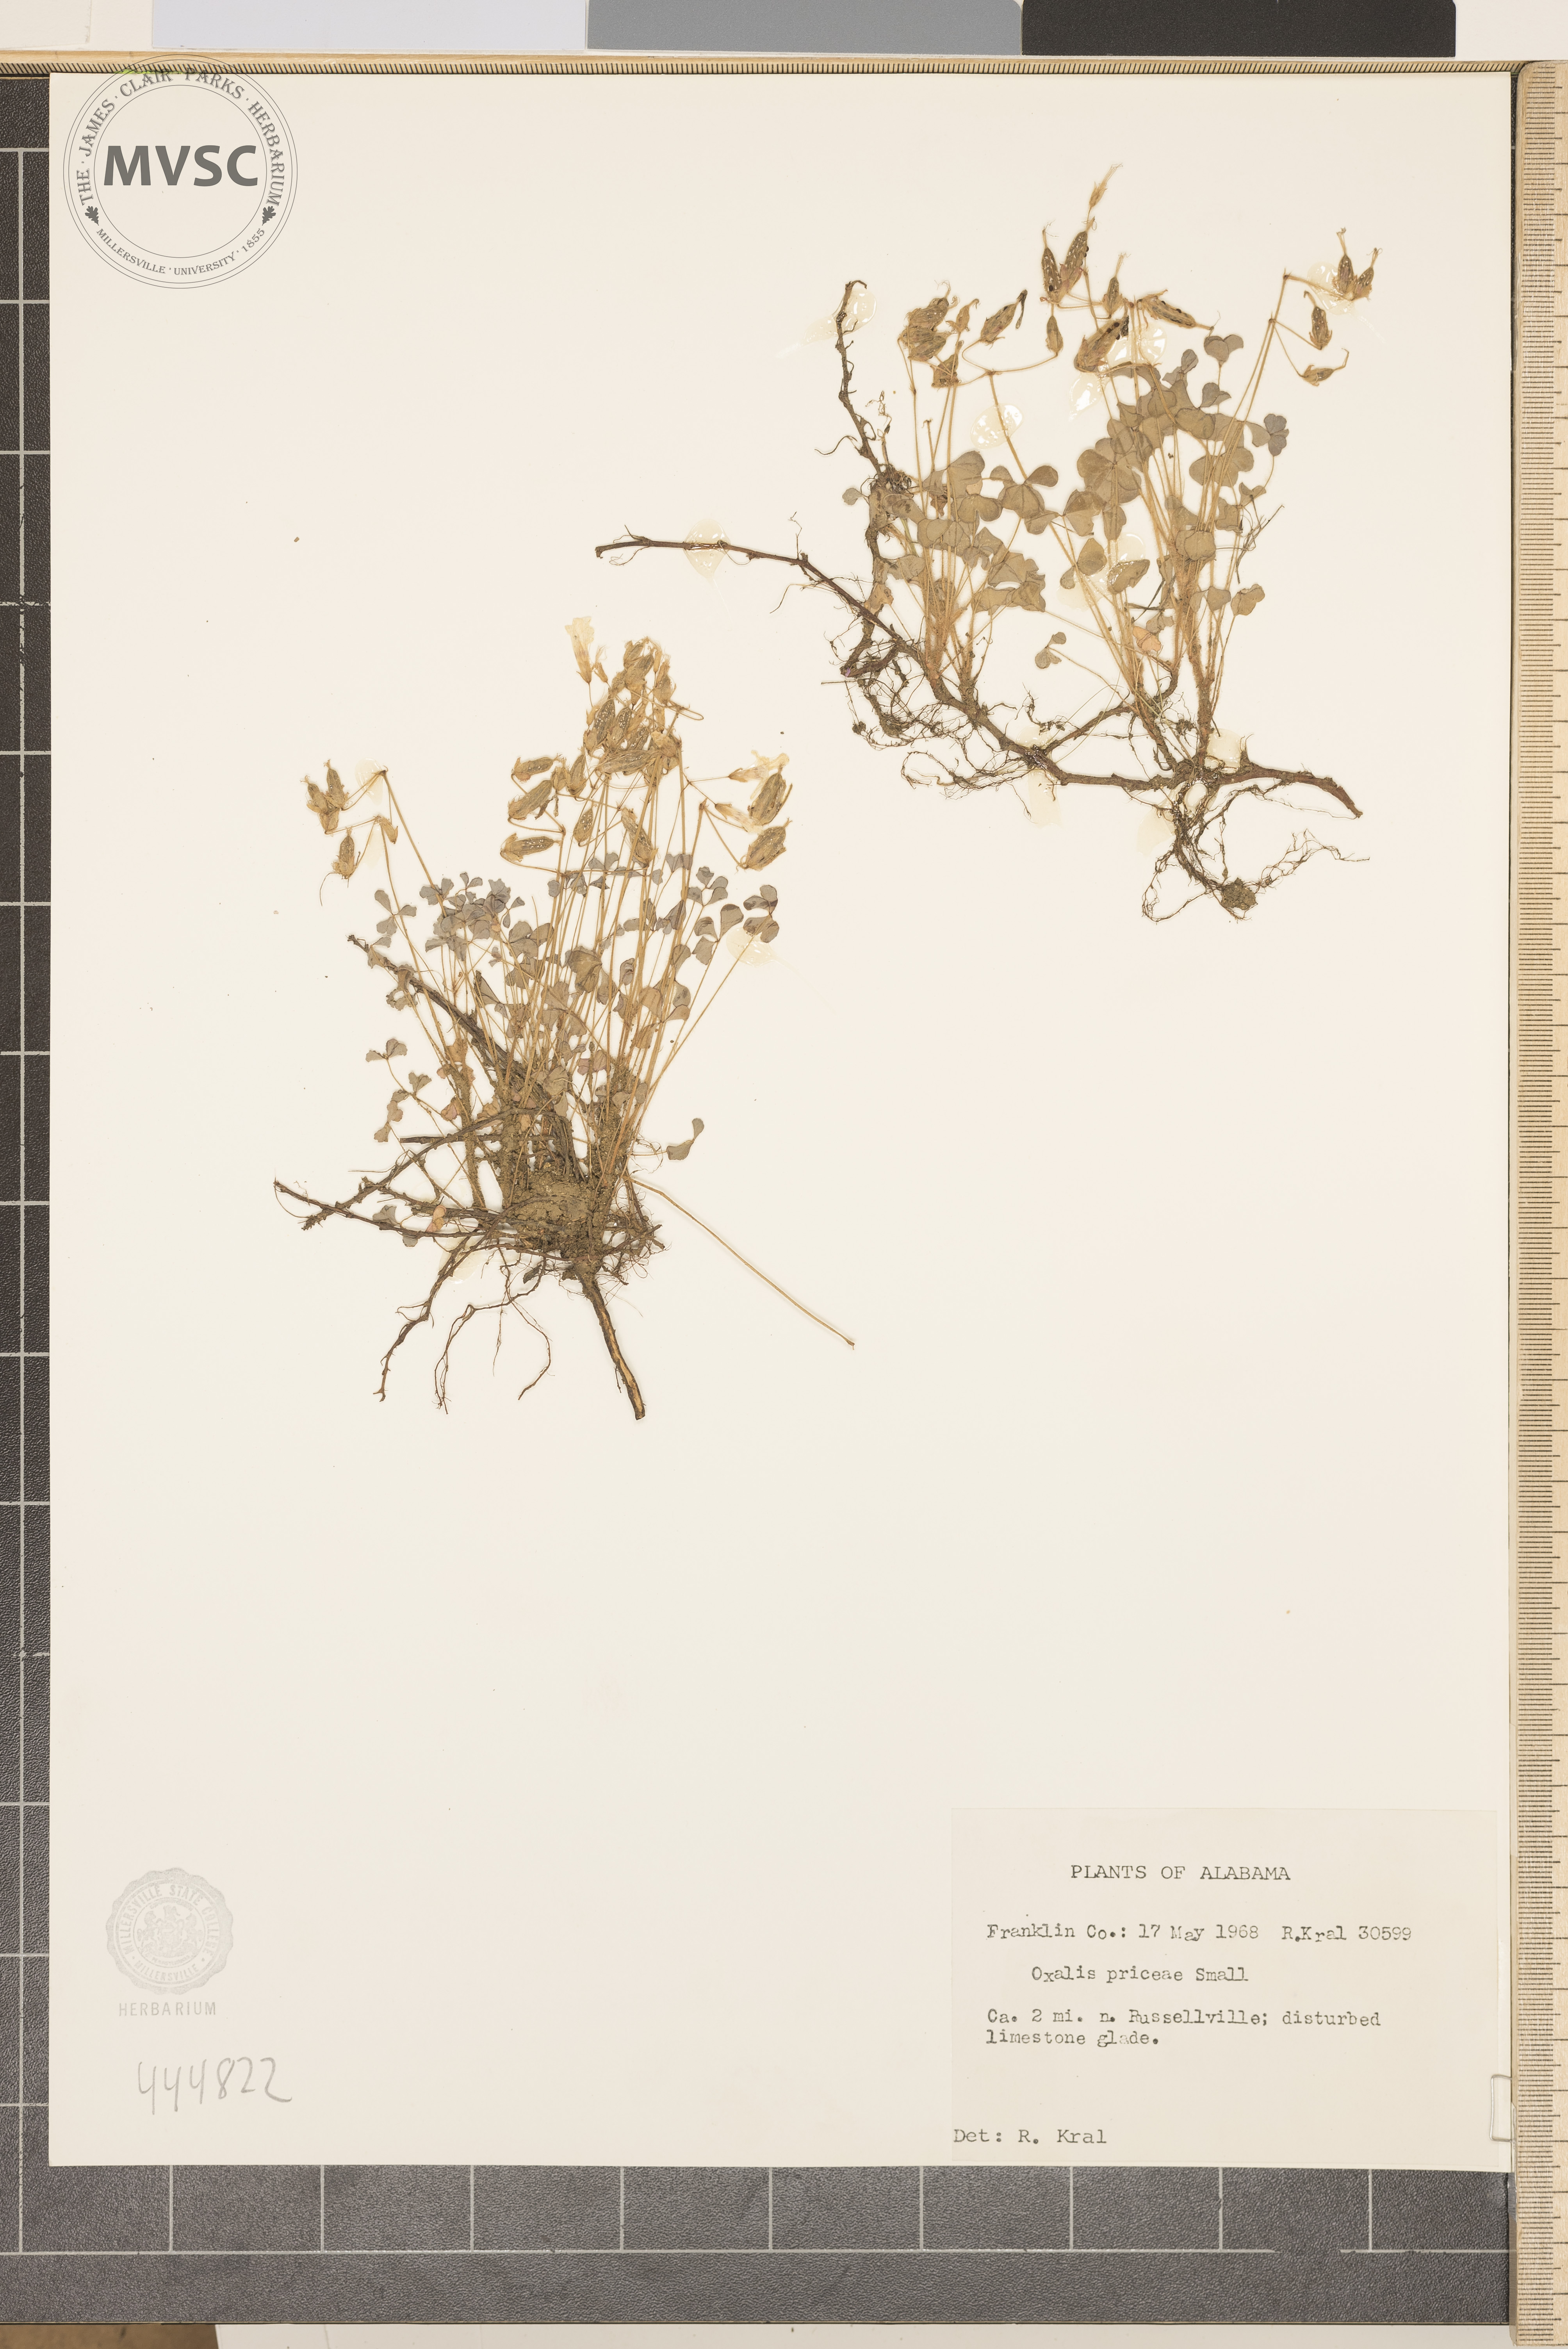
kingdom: Plantae
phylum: Tracheophyta
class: Magnoliopsida
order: Oxalidales
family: Oxalidaceae
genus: Oxalis
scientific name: Oxalis macrantha
